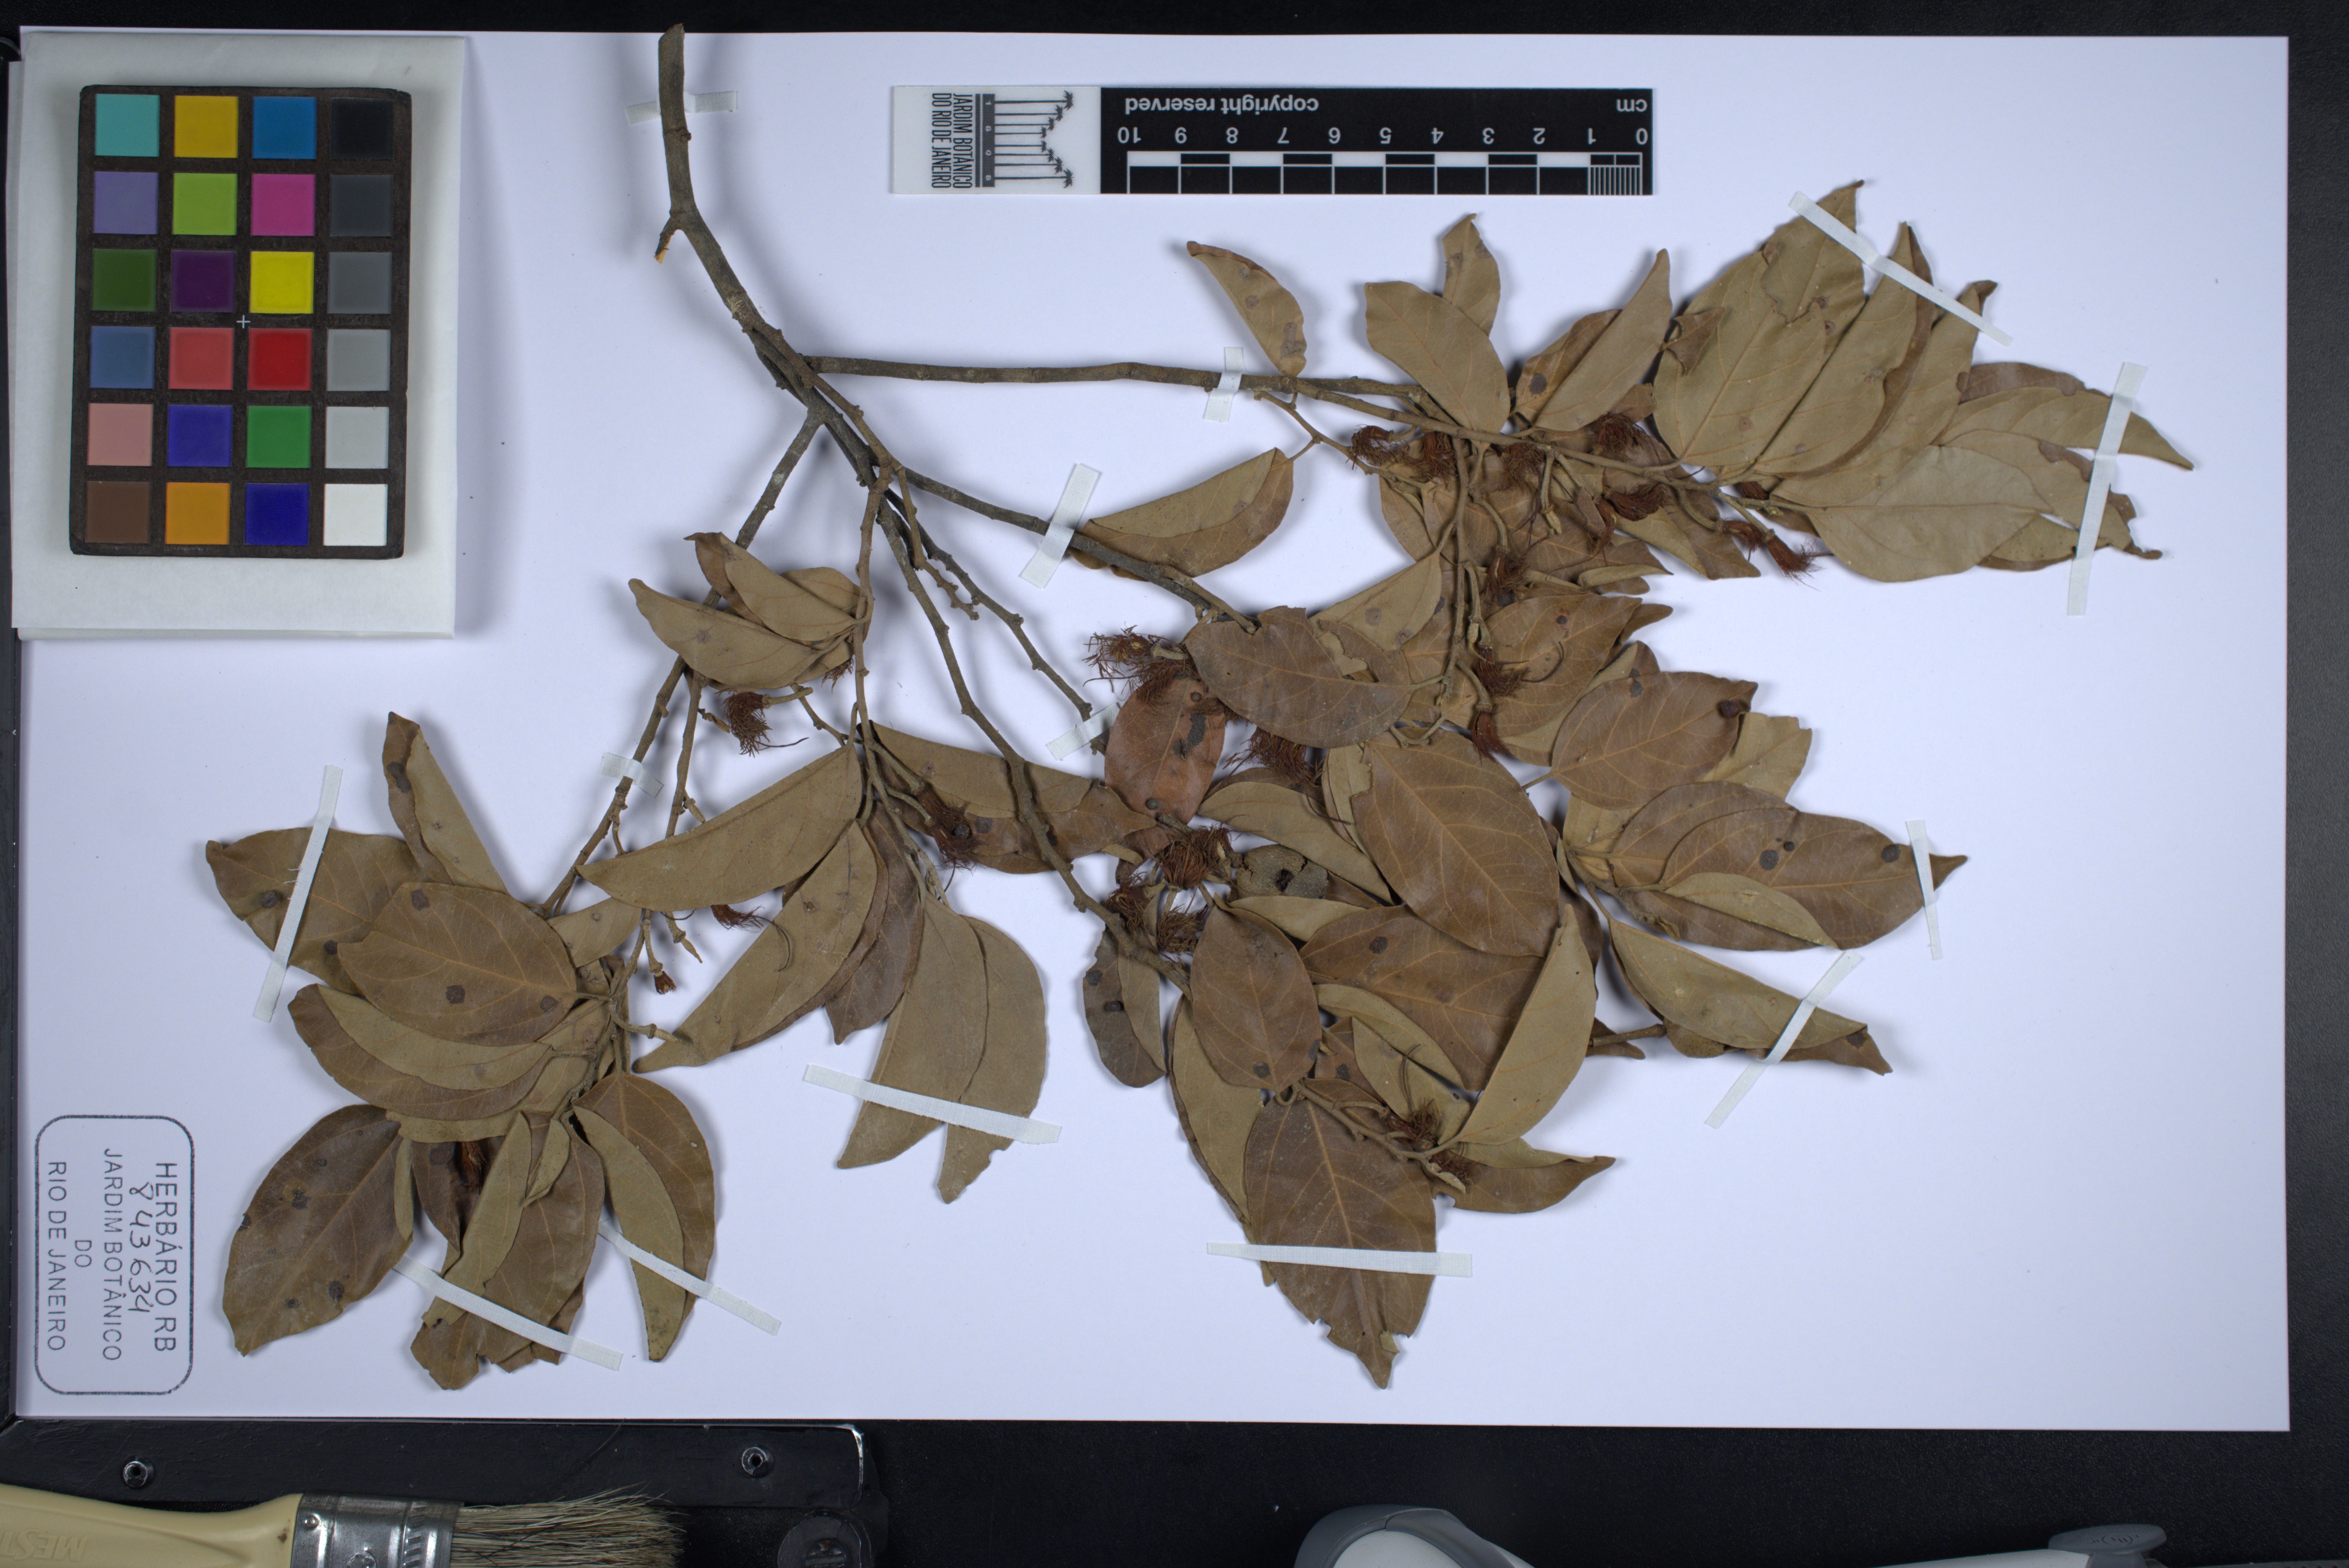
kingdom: Plantae
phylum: Tracheophyta
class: Magnoliopsida
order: Malvales
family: Malvaceae
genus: Mollia
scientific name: Mollia burchellii
